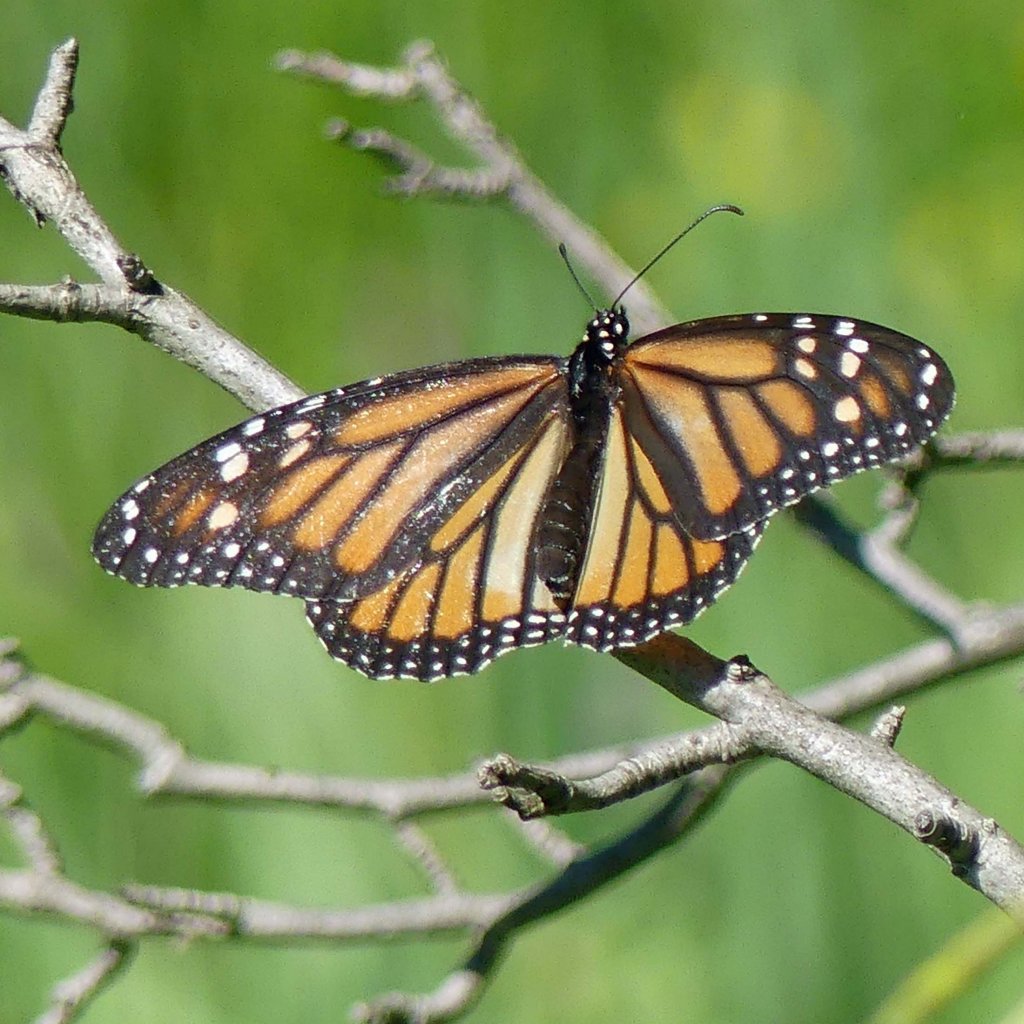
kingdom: Animalia
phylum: Arthropoda
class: Insecta
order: Lepidoptera
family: Nymphalidae
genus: Danaus
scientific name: Danaus plexippus
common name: Monarch
